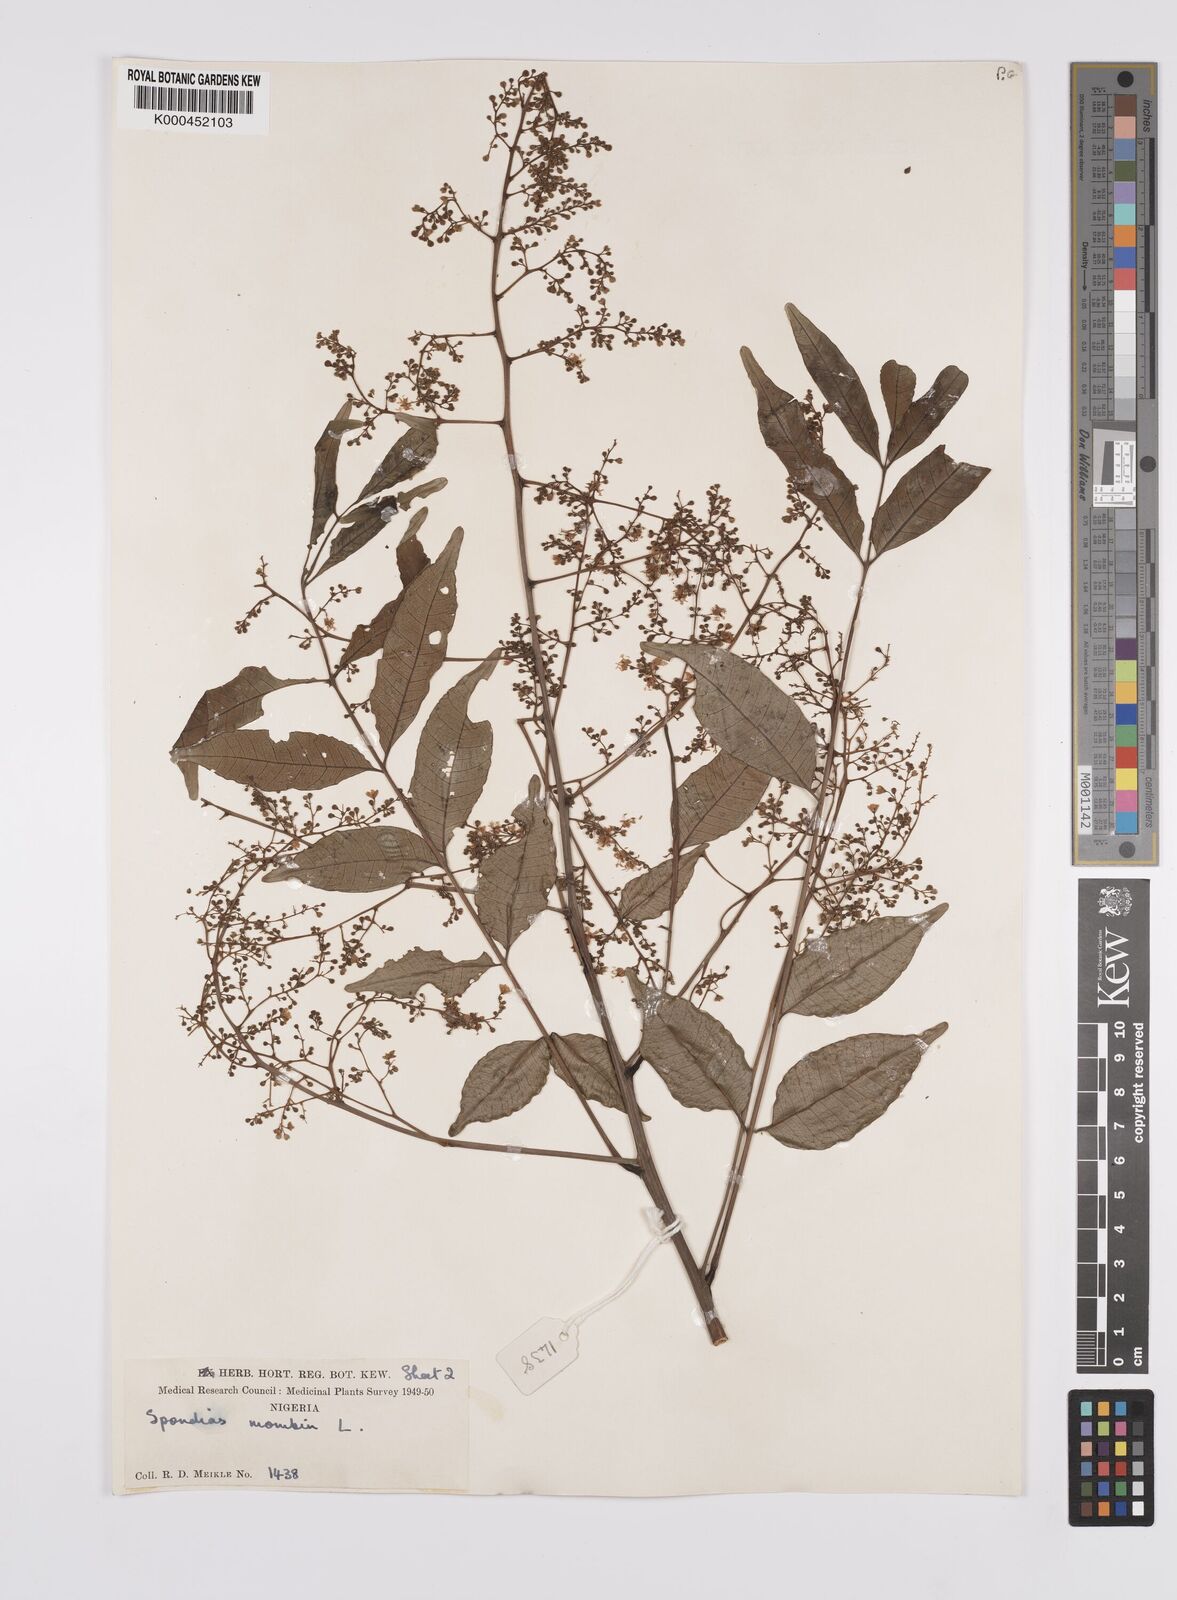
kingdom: Plantae
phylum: Tracheophyta
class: Magnoliopsida
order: Sapindales
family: Anacardiaceae
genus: Spondias
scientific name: Spondias mombin
